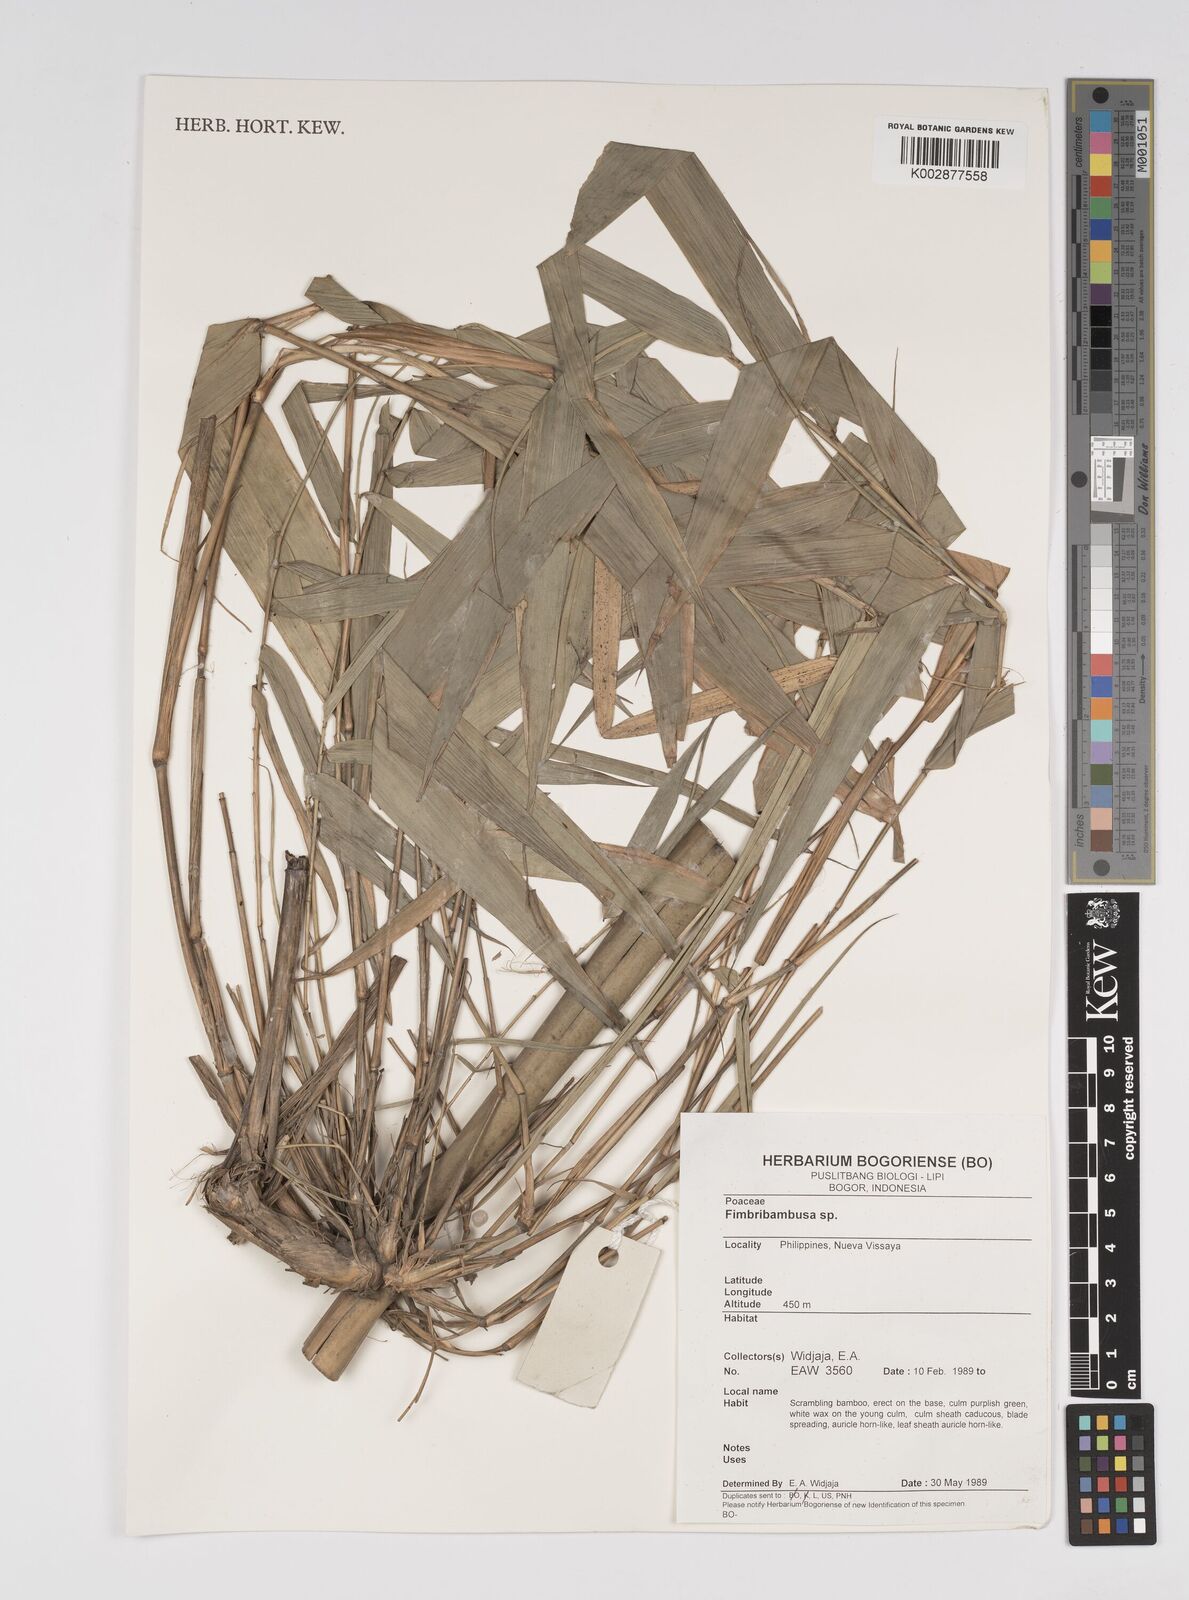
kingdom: Plantae
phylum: Tracheophyta
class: Liliopsida
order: Poales
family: Poaceae
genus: Bambusa
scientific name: Bambusa
